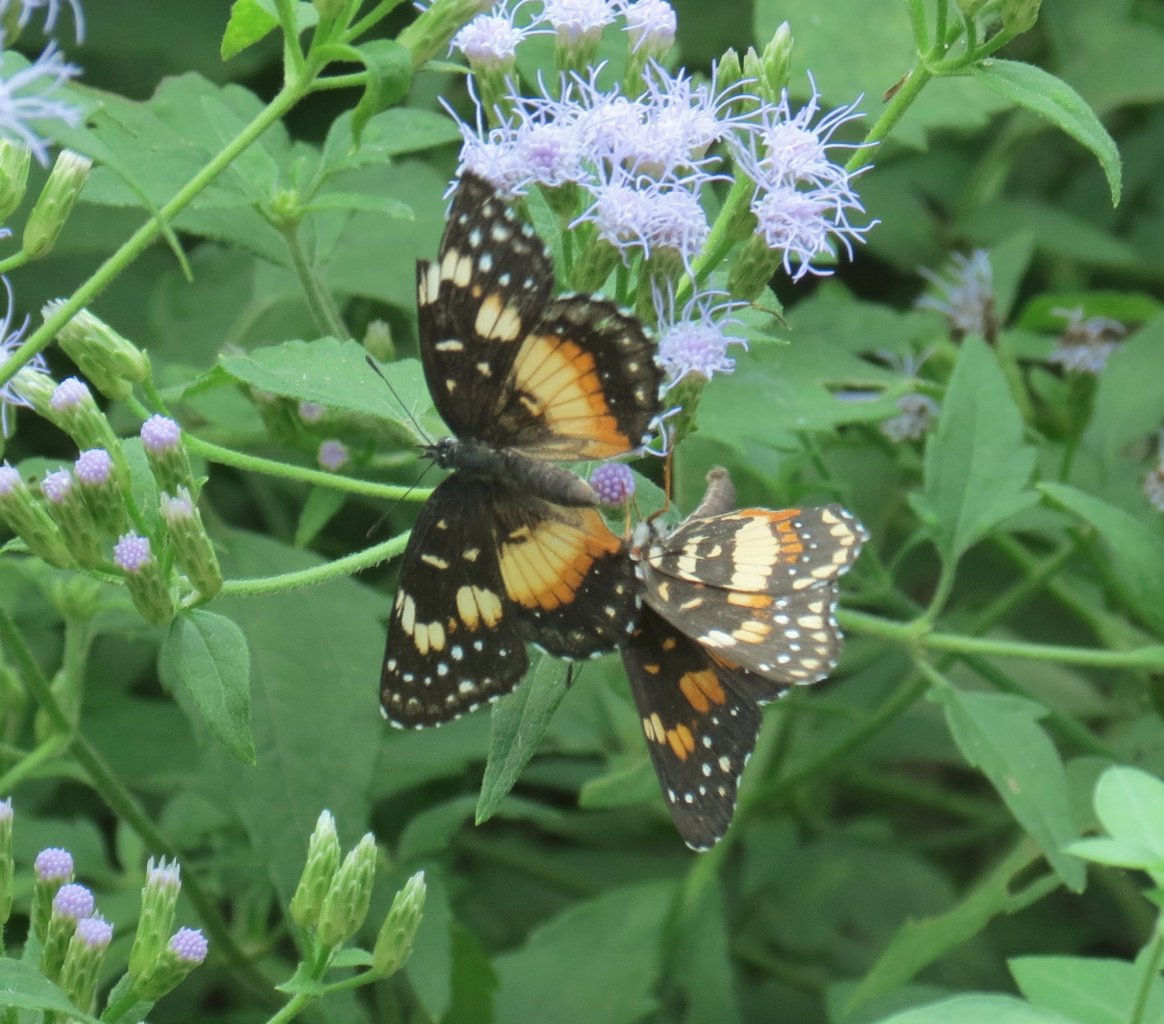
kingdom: Animalia
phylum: Arthropoda
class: Insecta
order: Lepidoptera
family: Nymphalidae
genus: Chlosyne
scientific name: Chlosyne lacinia
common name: Bordered Patch
